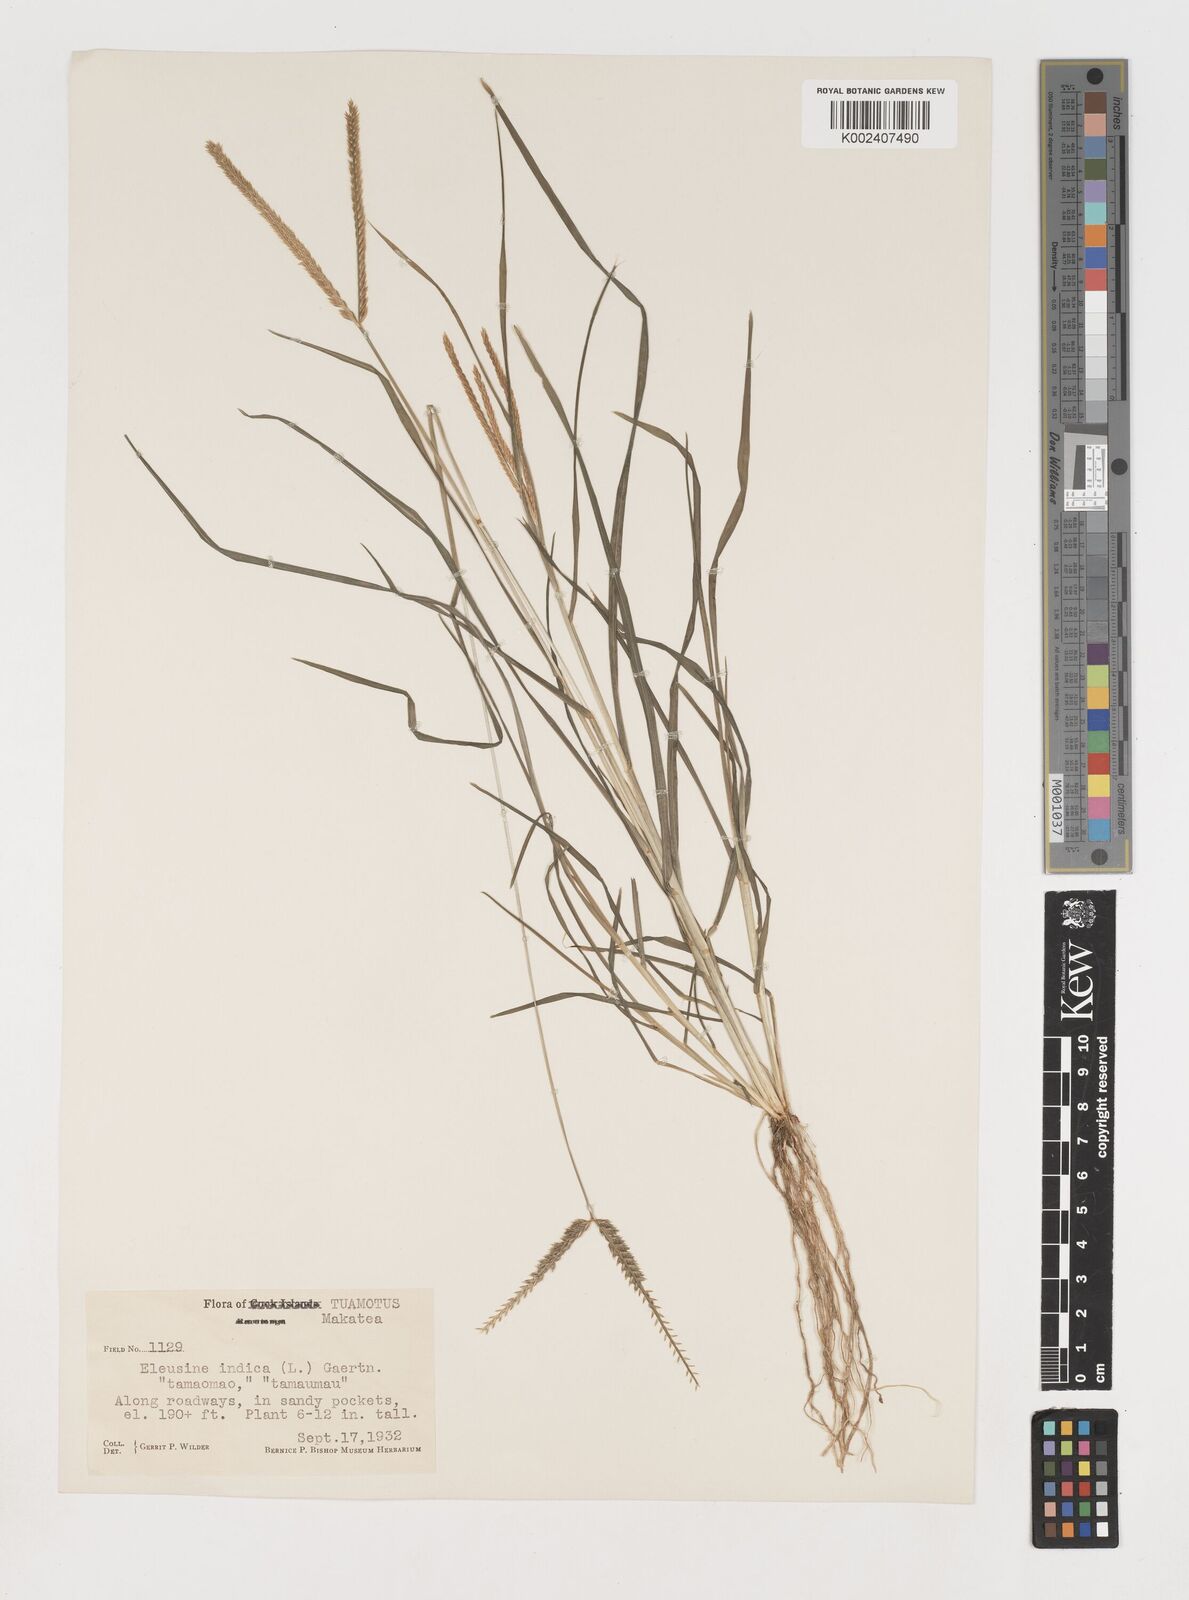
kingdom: Plantae
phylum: Tracheophyta
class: Liliopsida
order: Poales
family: Poaceae
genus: Eleusine
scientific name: Eleusine indica
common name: Yard-grass
